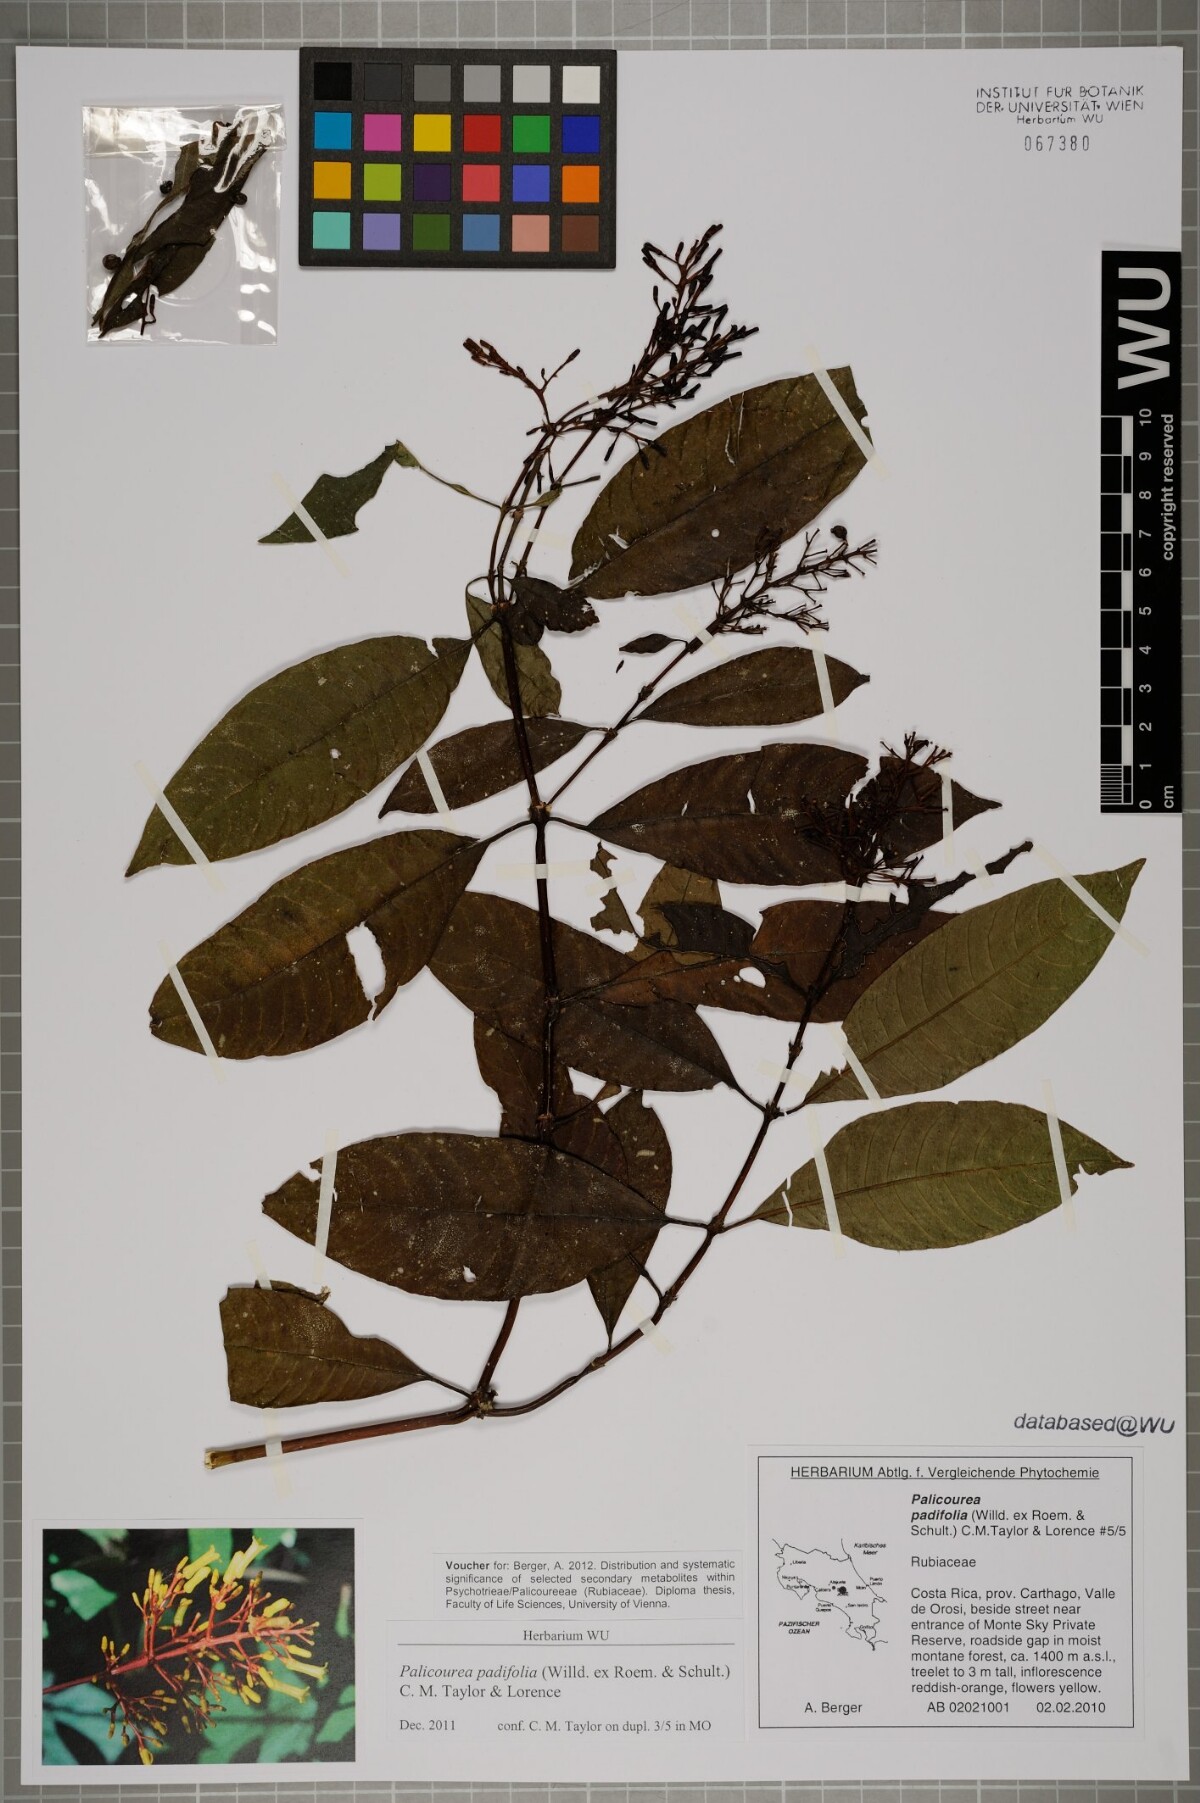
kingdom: Plantae
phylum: Tracheophyta
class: Magnoliopsida
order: Gentianales
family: Rubiaceae
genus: Palicourea
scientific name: Palicourea padifolia
